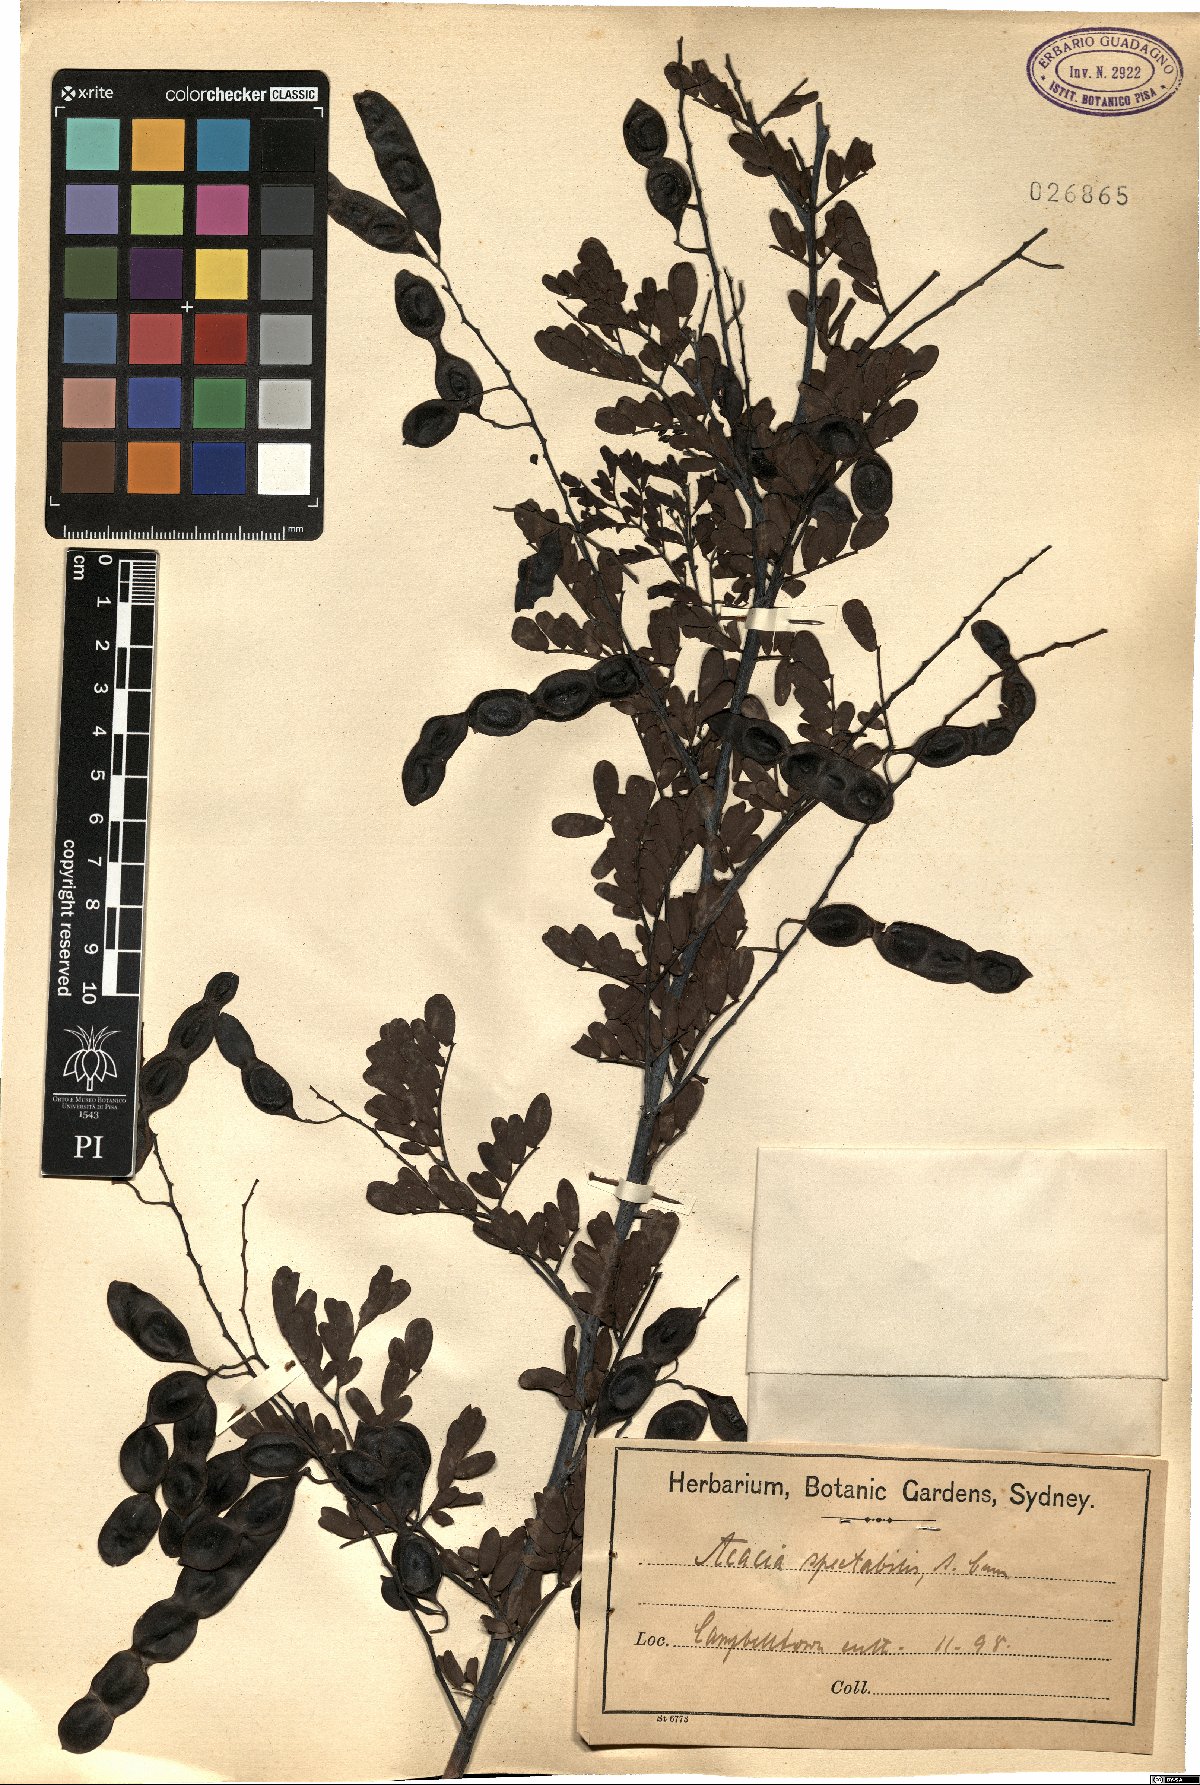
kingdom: Plantae
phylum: Tracheophyta
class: Magnoliopsida
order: Fabales
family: Fabaceae
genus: Acacia
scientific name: Acacia spectabilis
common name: Golden wattle
